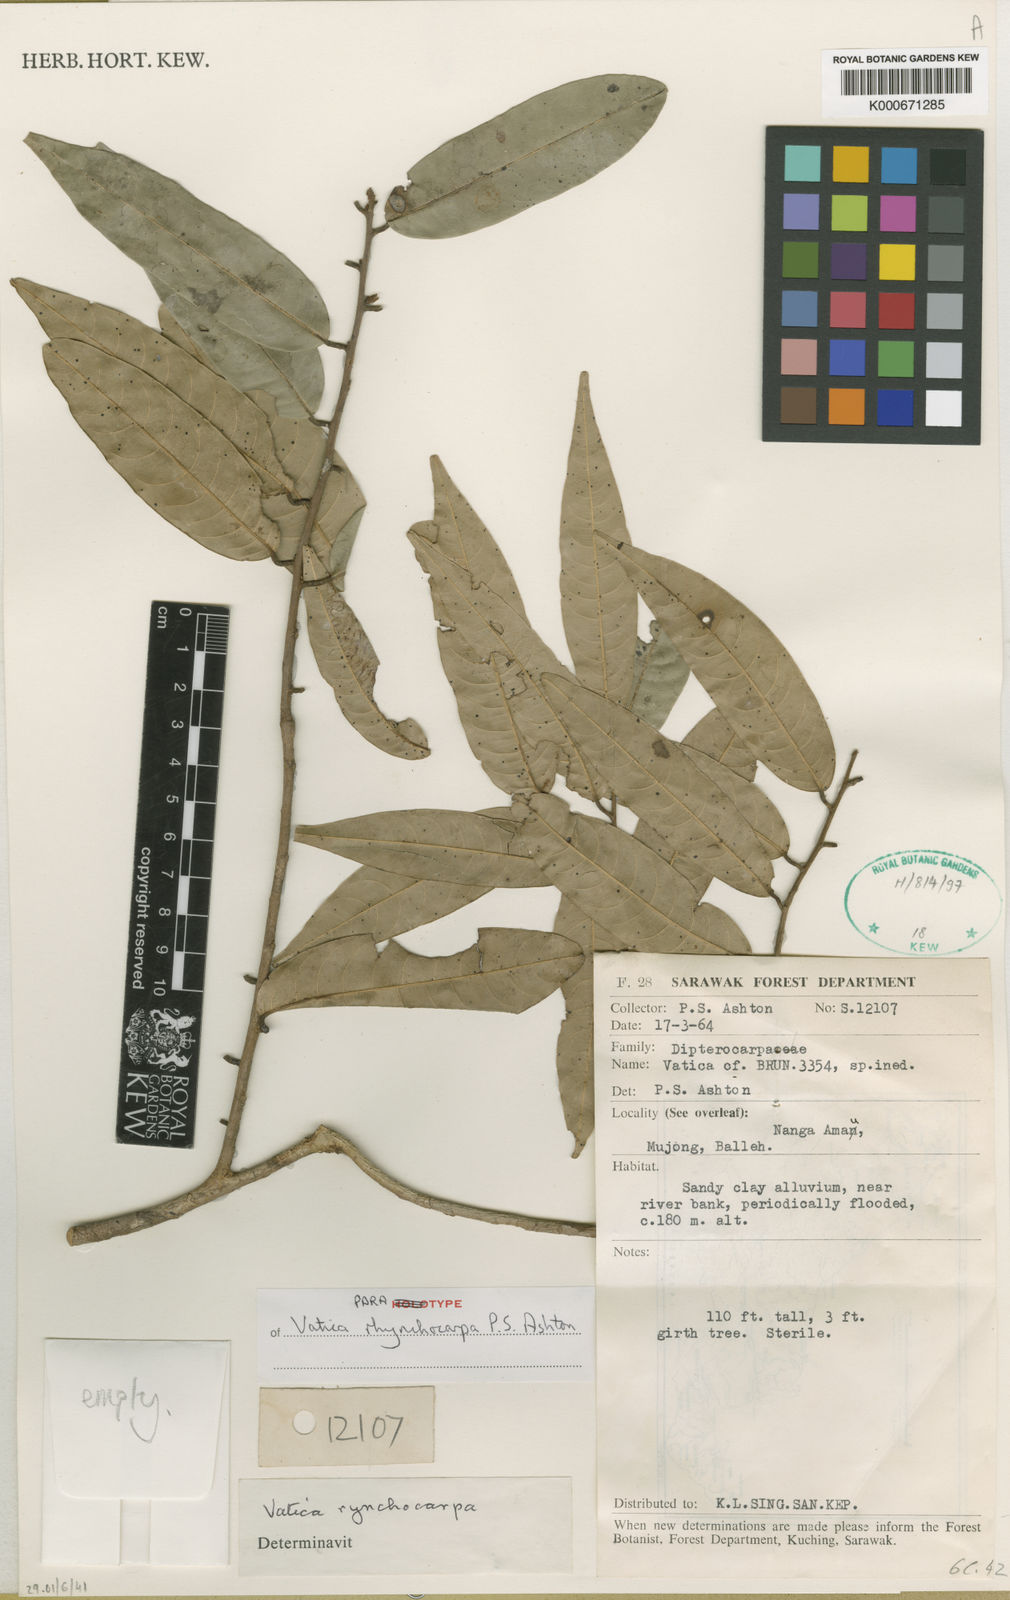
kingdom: Plantae
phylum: Tracheophyta
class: Magnoliopsida
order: Malvales
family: Dipterocarpaceae
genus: Vatica
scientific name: Vatica rynchocarpa
